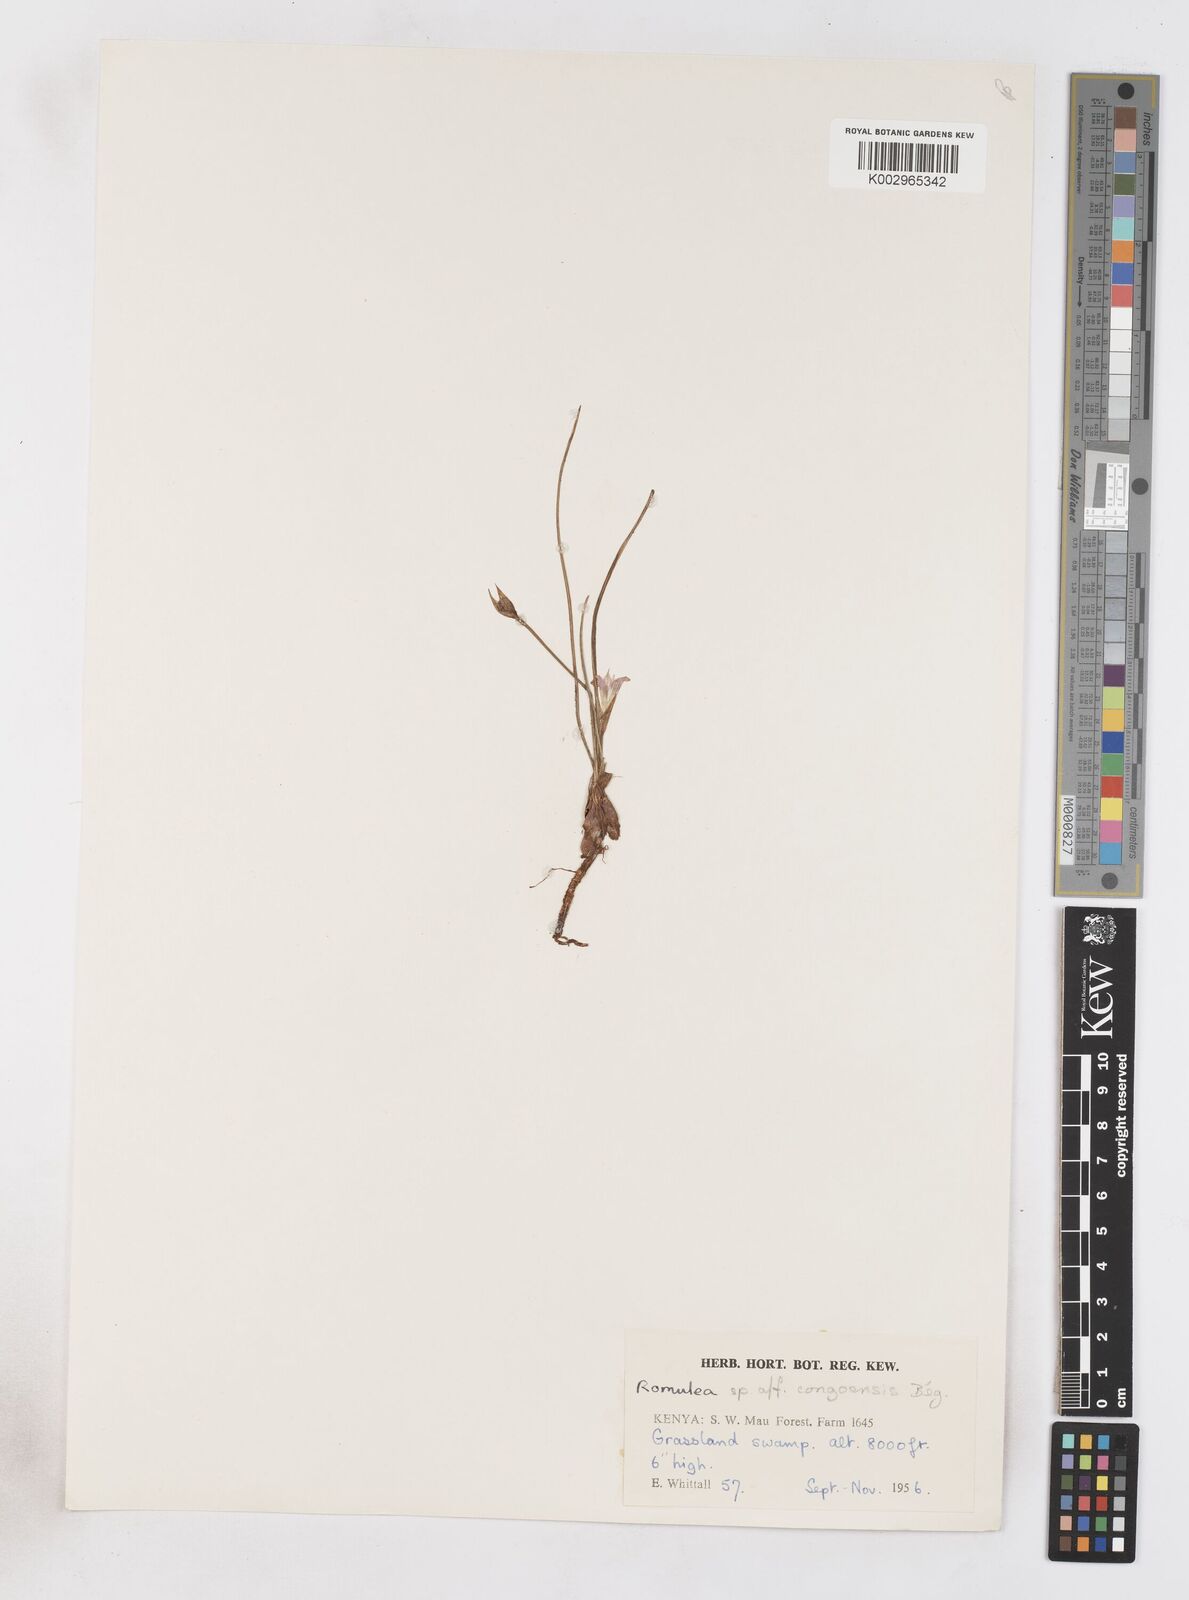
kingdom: Plantae
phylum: Tracheophyta
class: Liliopsida
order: Asparagales
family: Iridaceae
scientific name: Iridaceae
